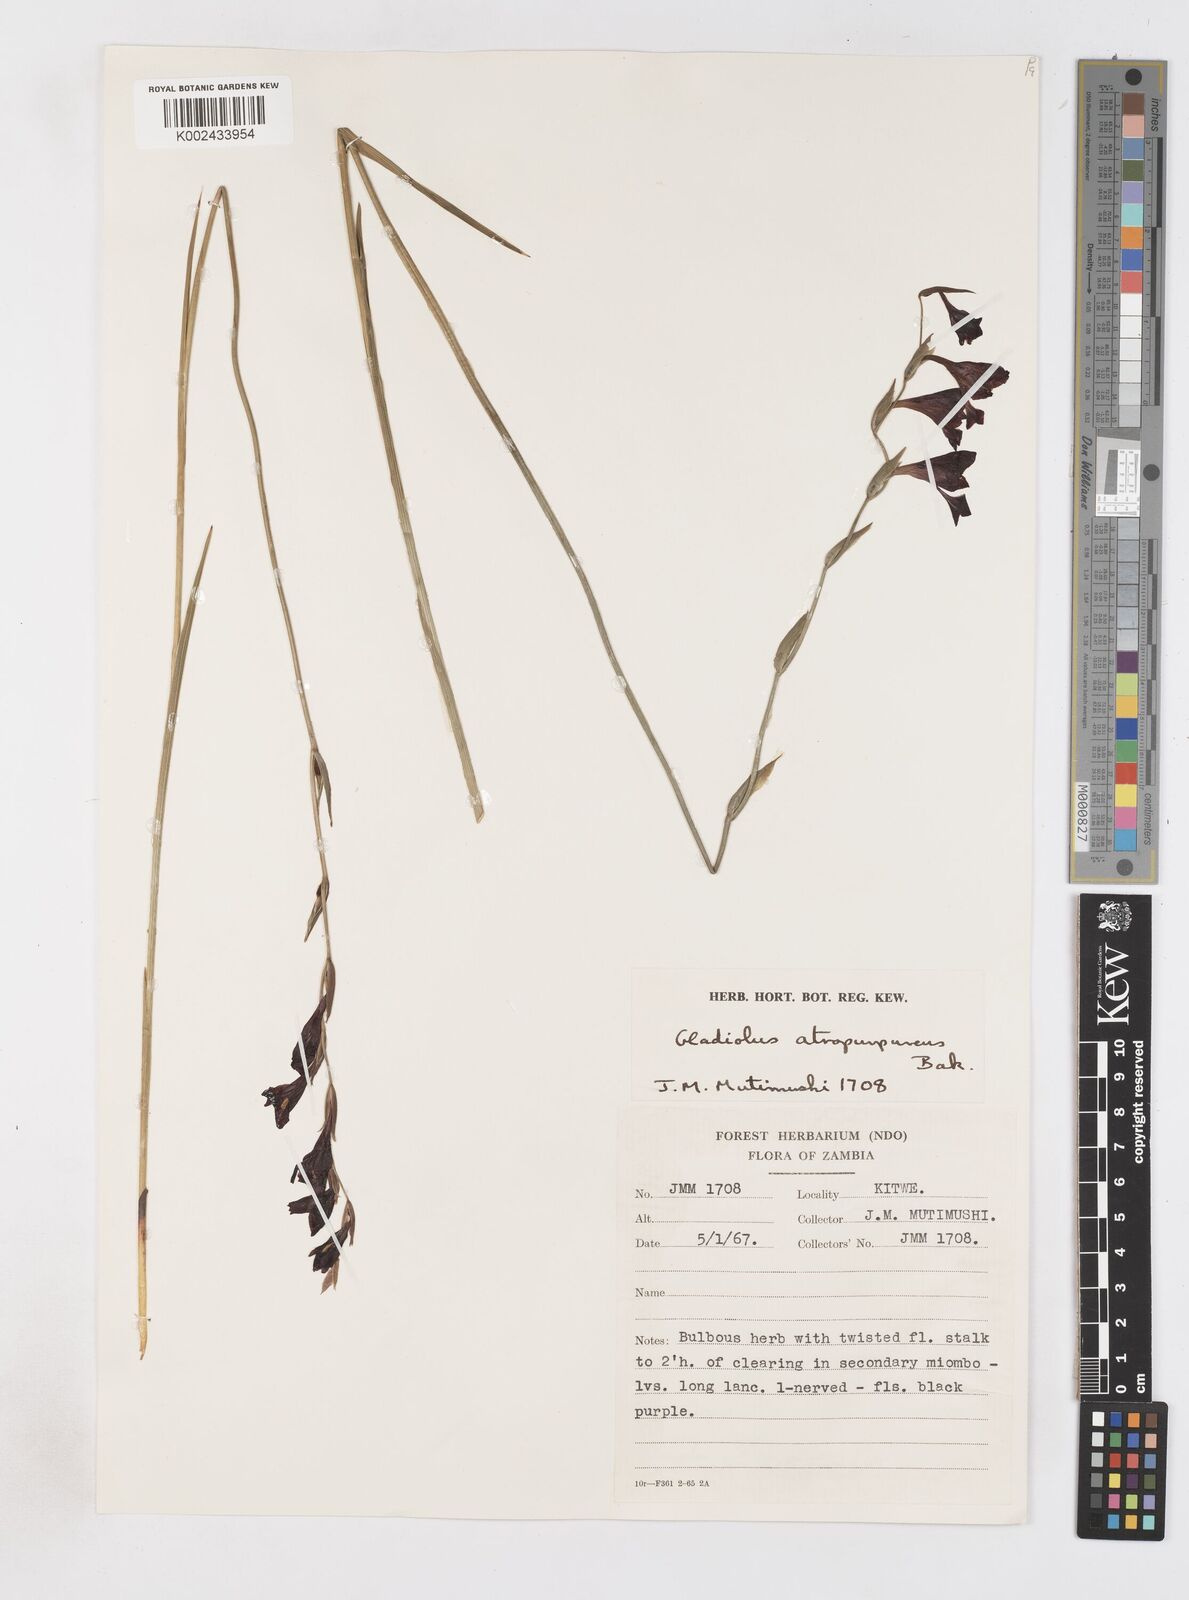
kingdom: Plantae
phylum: Tracheophyta
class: Liliopsida
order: Asparagales
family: Iridaceae
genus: Gladiolus
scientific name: Gladiolus atropurpureus
